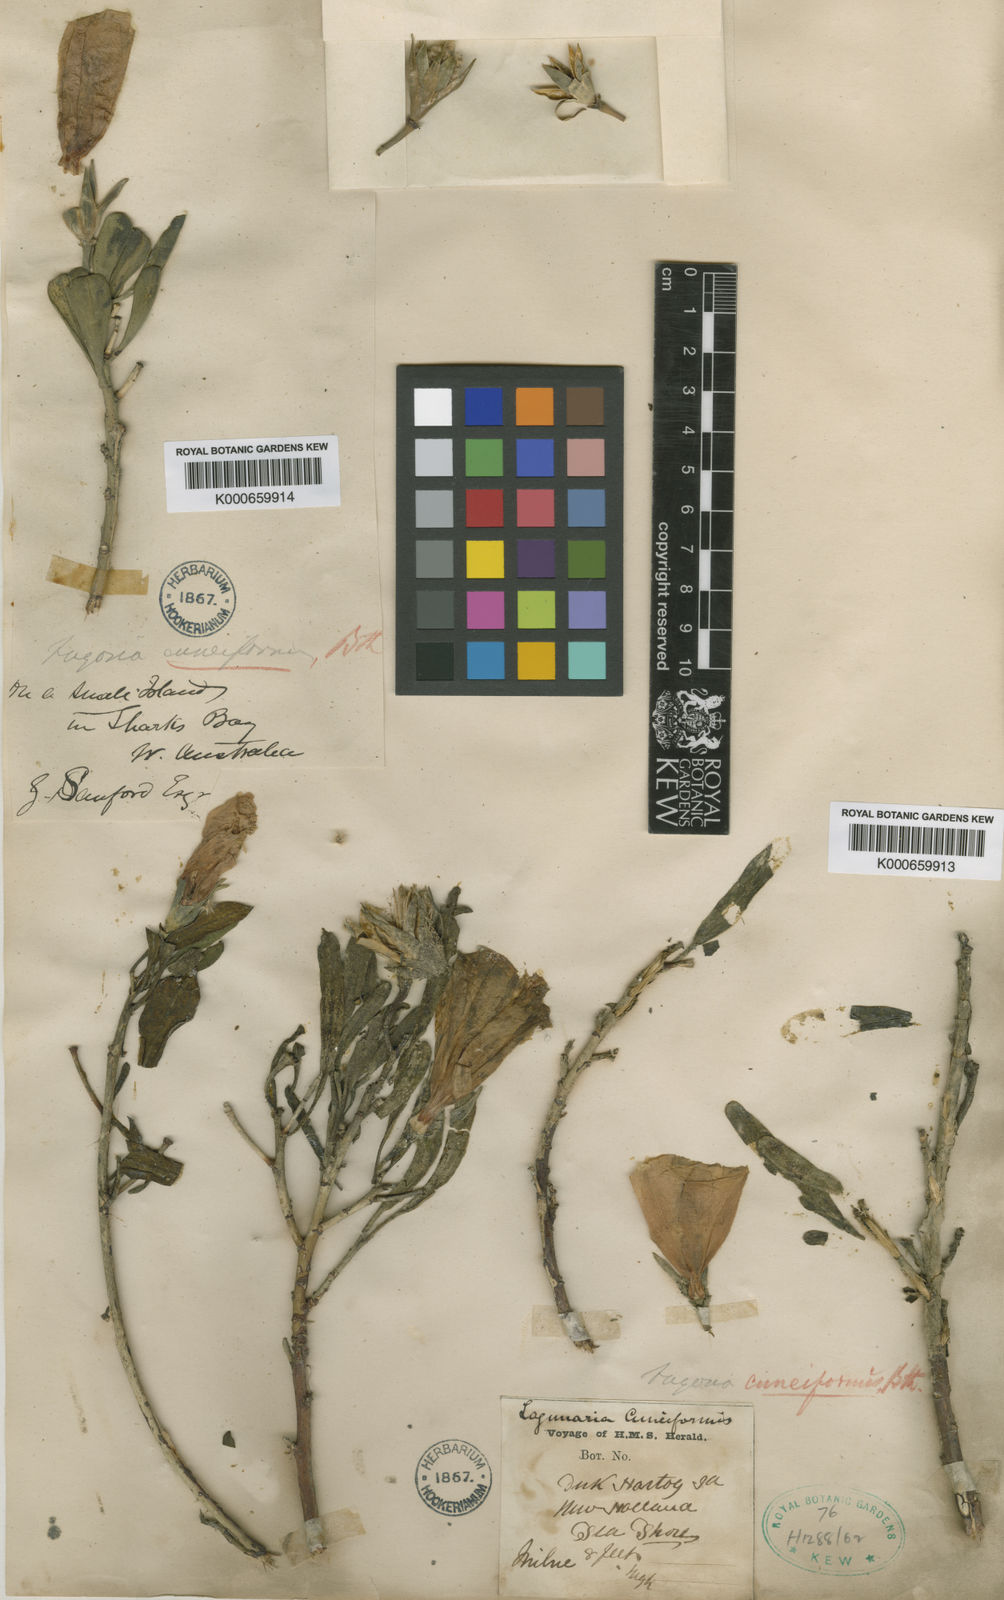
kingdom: Plantae
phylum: Tracheophyta
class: Magnoliopsida
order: Malvales
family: Malvaceae
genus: Hibiscus
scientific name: Hibiscus cuneiformis
